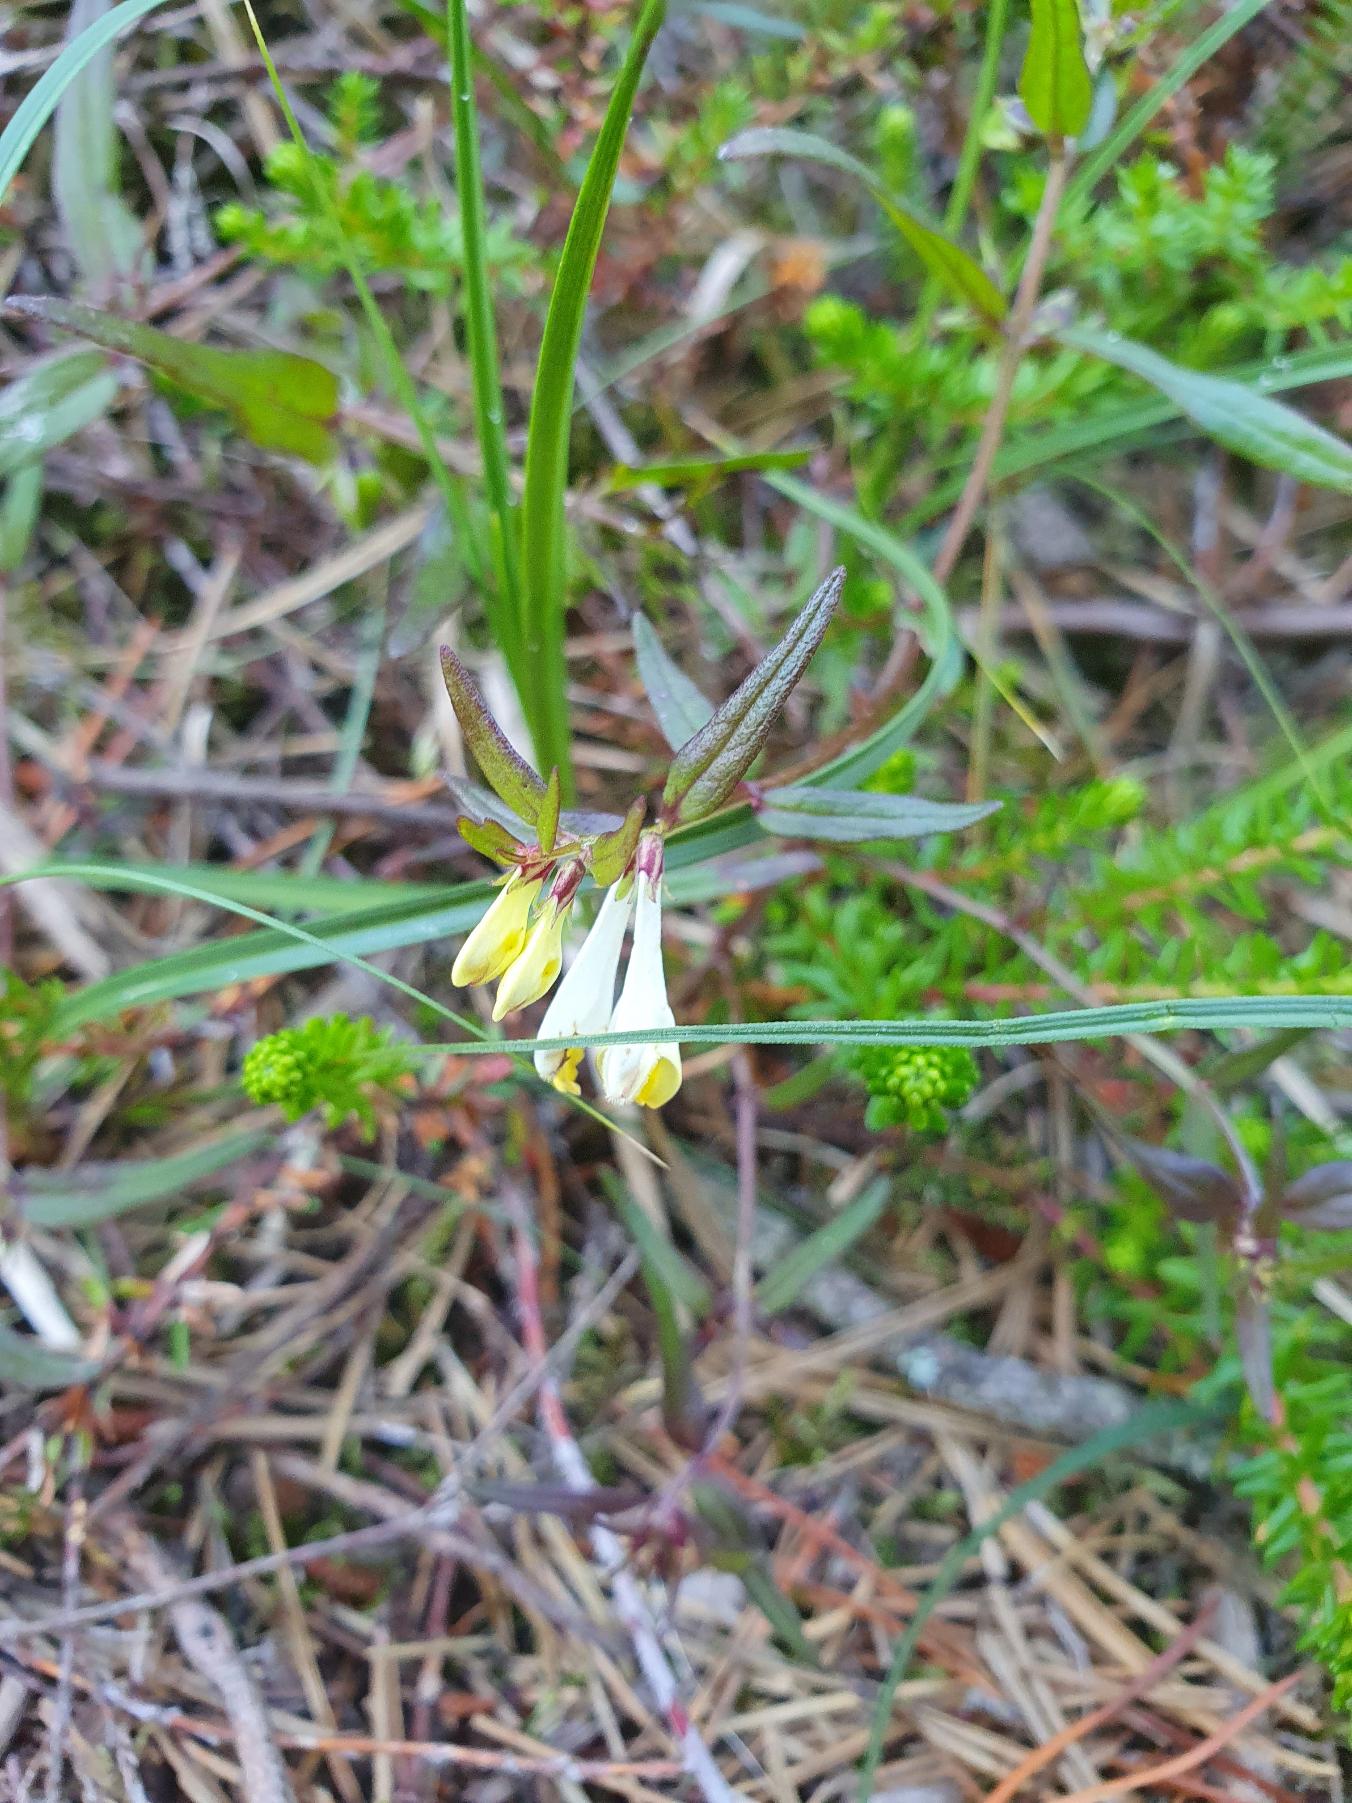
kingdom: Plantae
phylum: Tracheophyta
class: Magnoliopsida
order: Lamiales
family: Orobanchaceae
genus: Melampyrum
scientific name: Melampyrum pratense
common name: Almindelig kohvede
